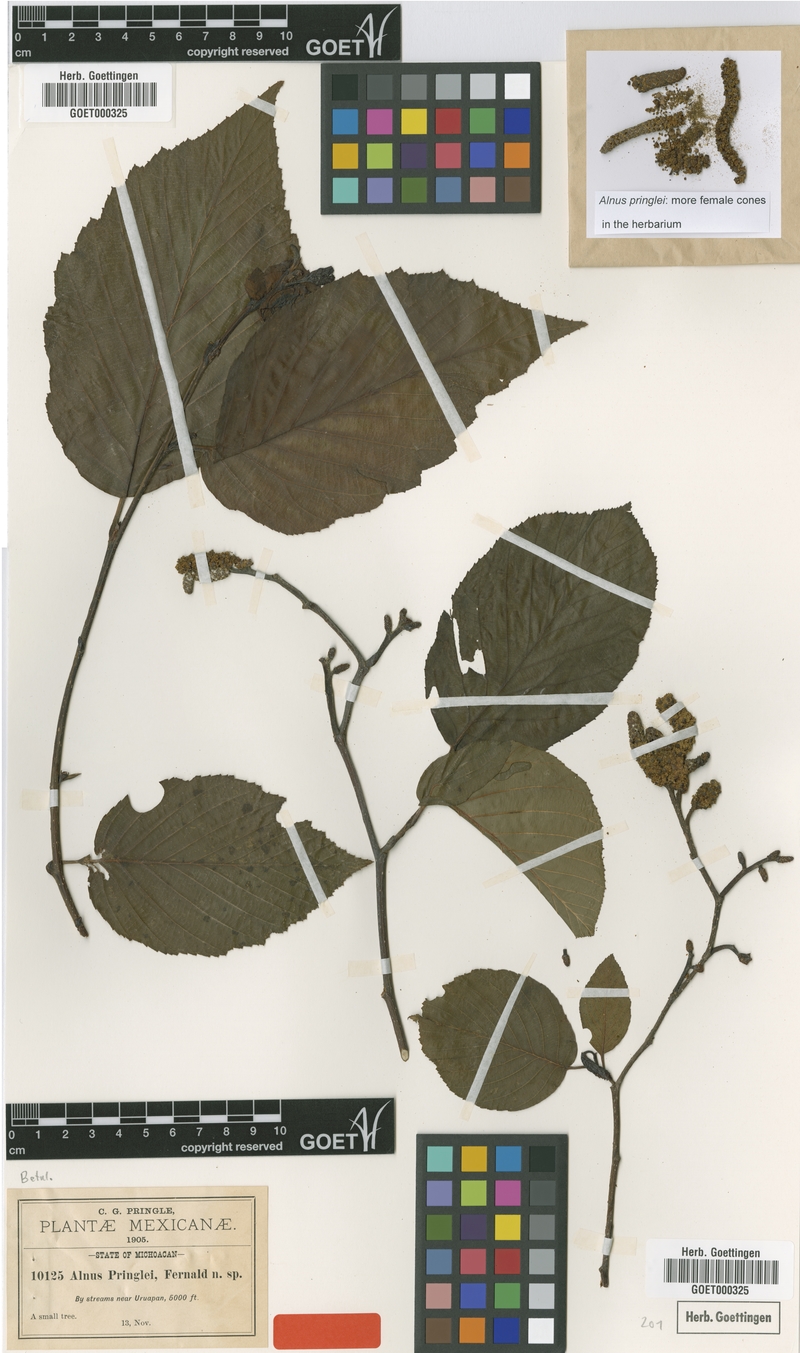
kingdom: Plantae
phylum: Tracheophyta
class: Magnoliopsida
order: Fagales
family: Betulaceae
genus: Alnus
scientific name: Alnus acuminata
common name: Alder
